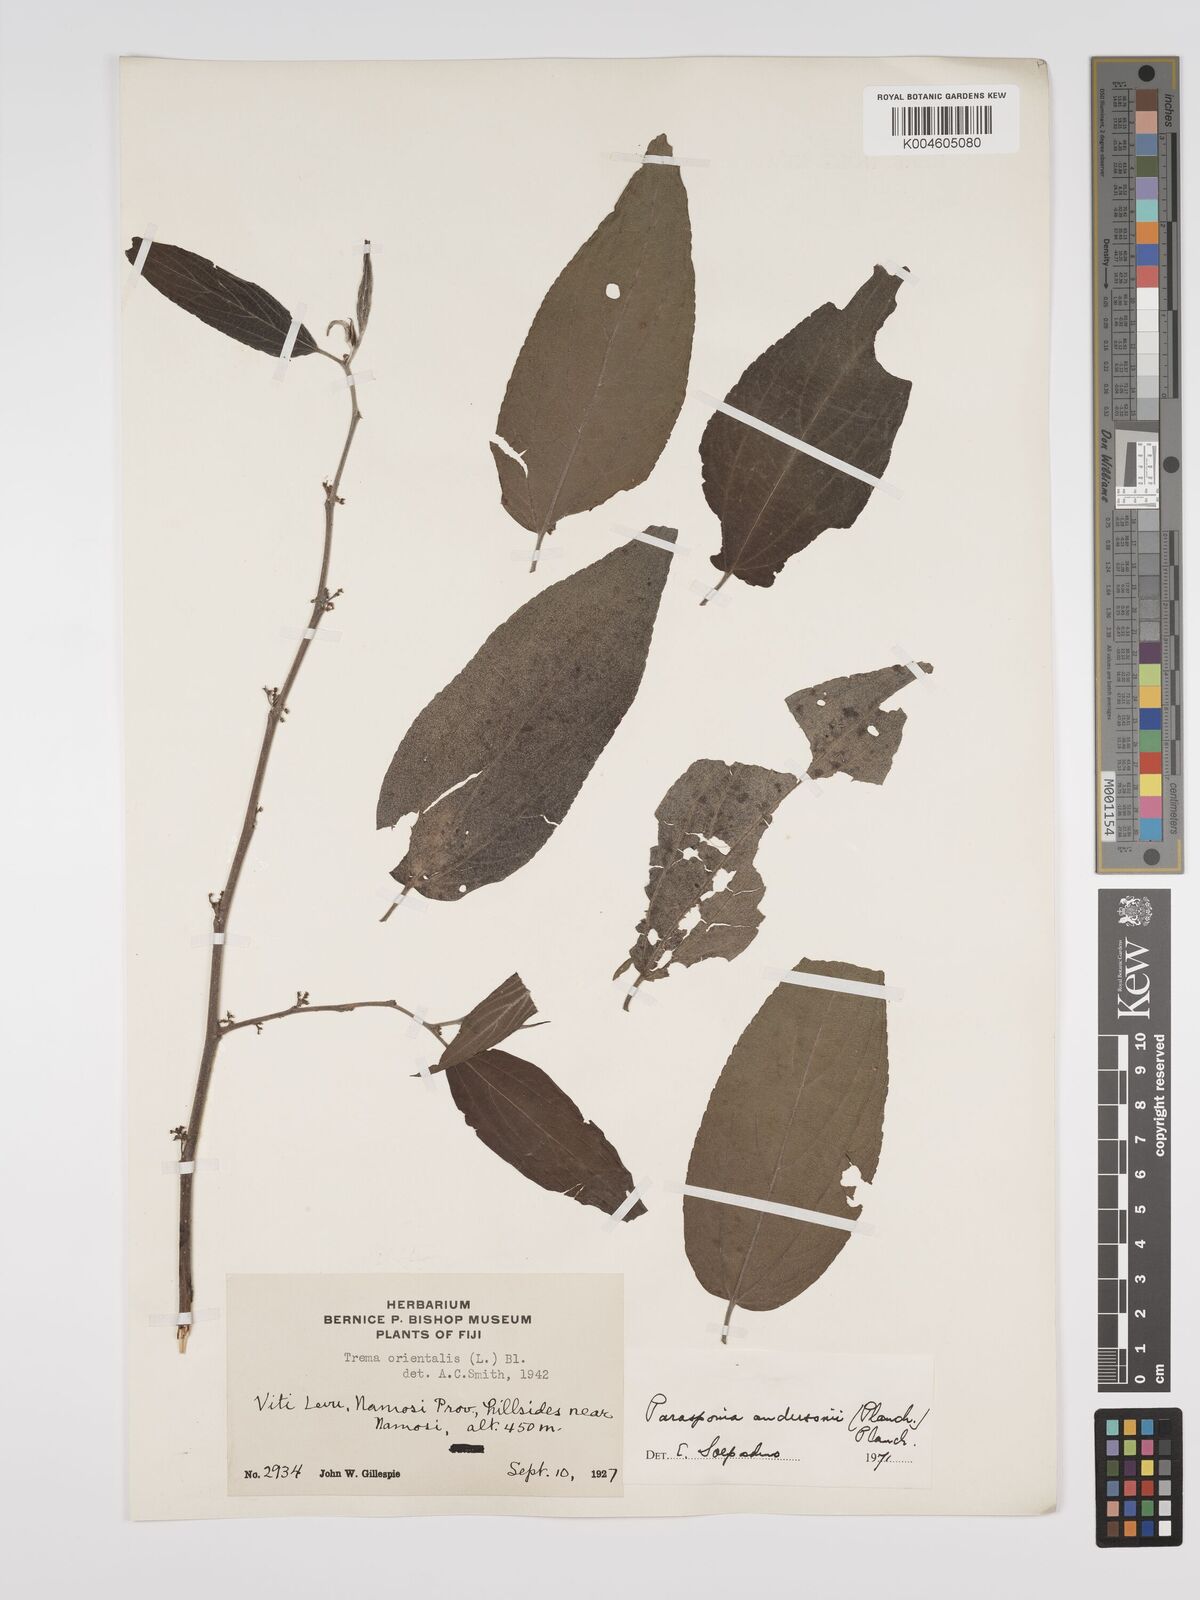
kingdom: Plantae
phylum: Tracheophyta
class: Magnoliopsida
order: Rosales
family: Cannabaceae
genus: Trema
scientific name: Trema andersonii
